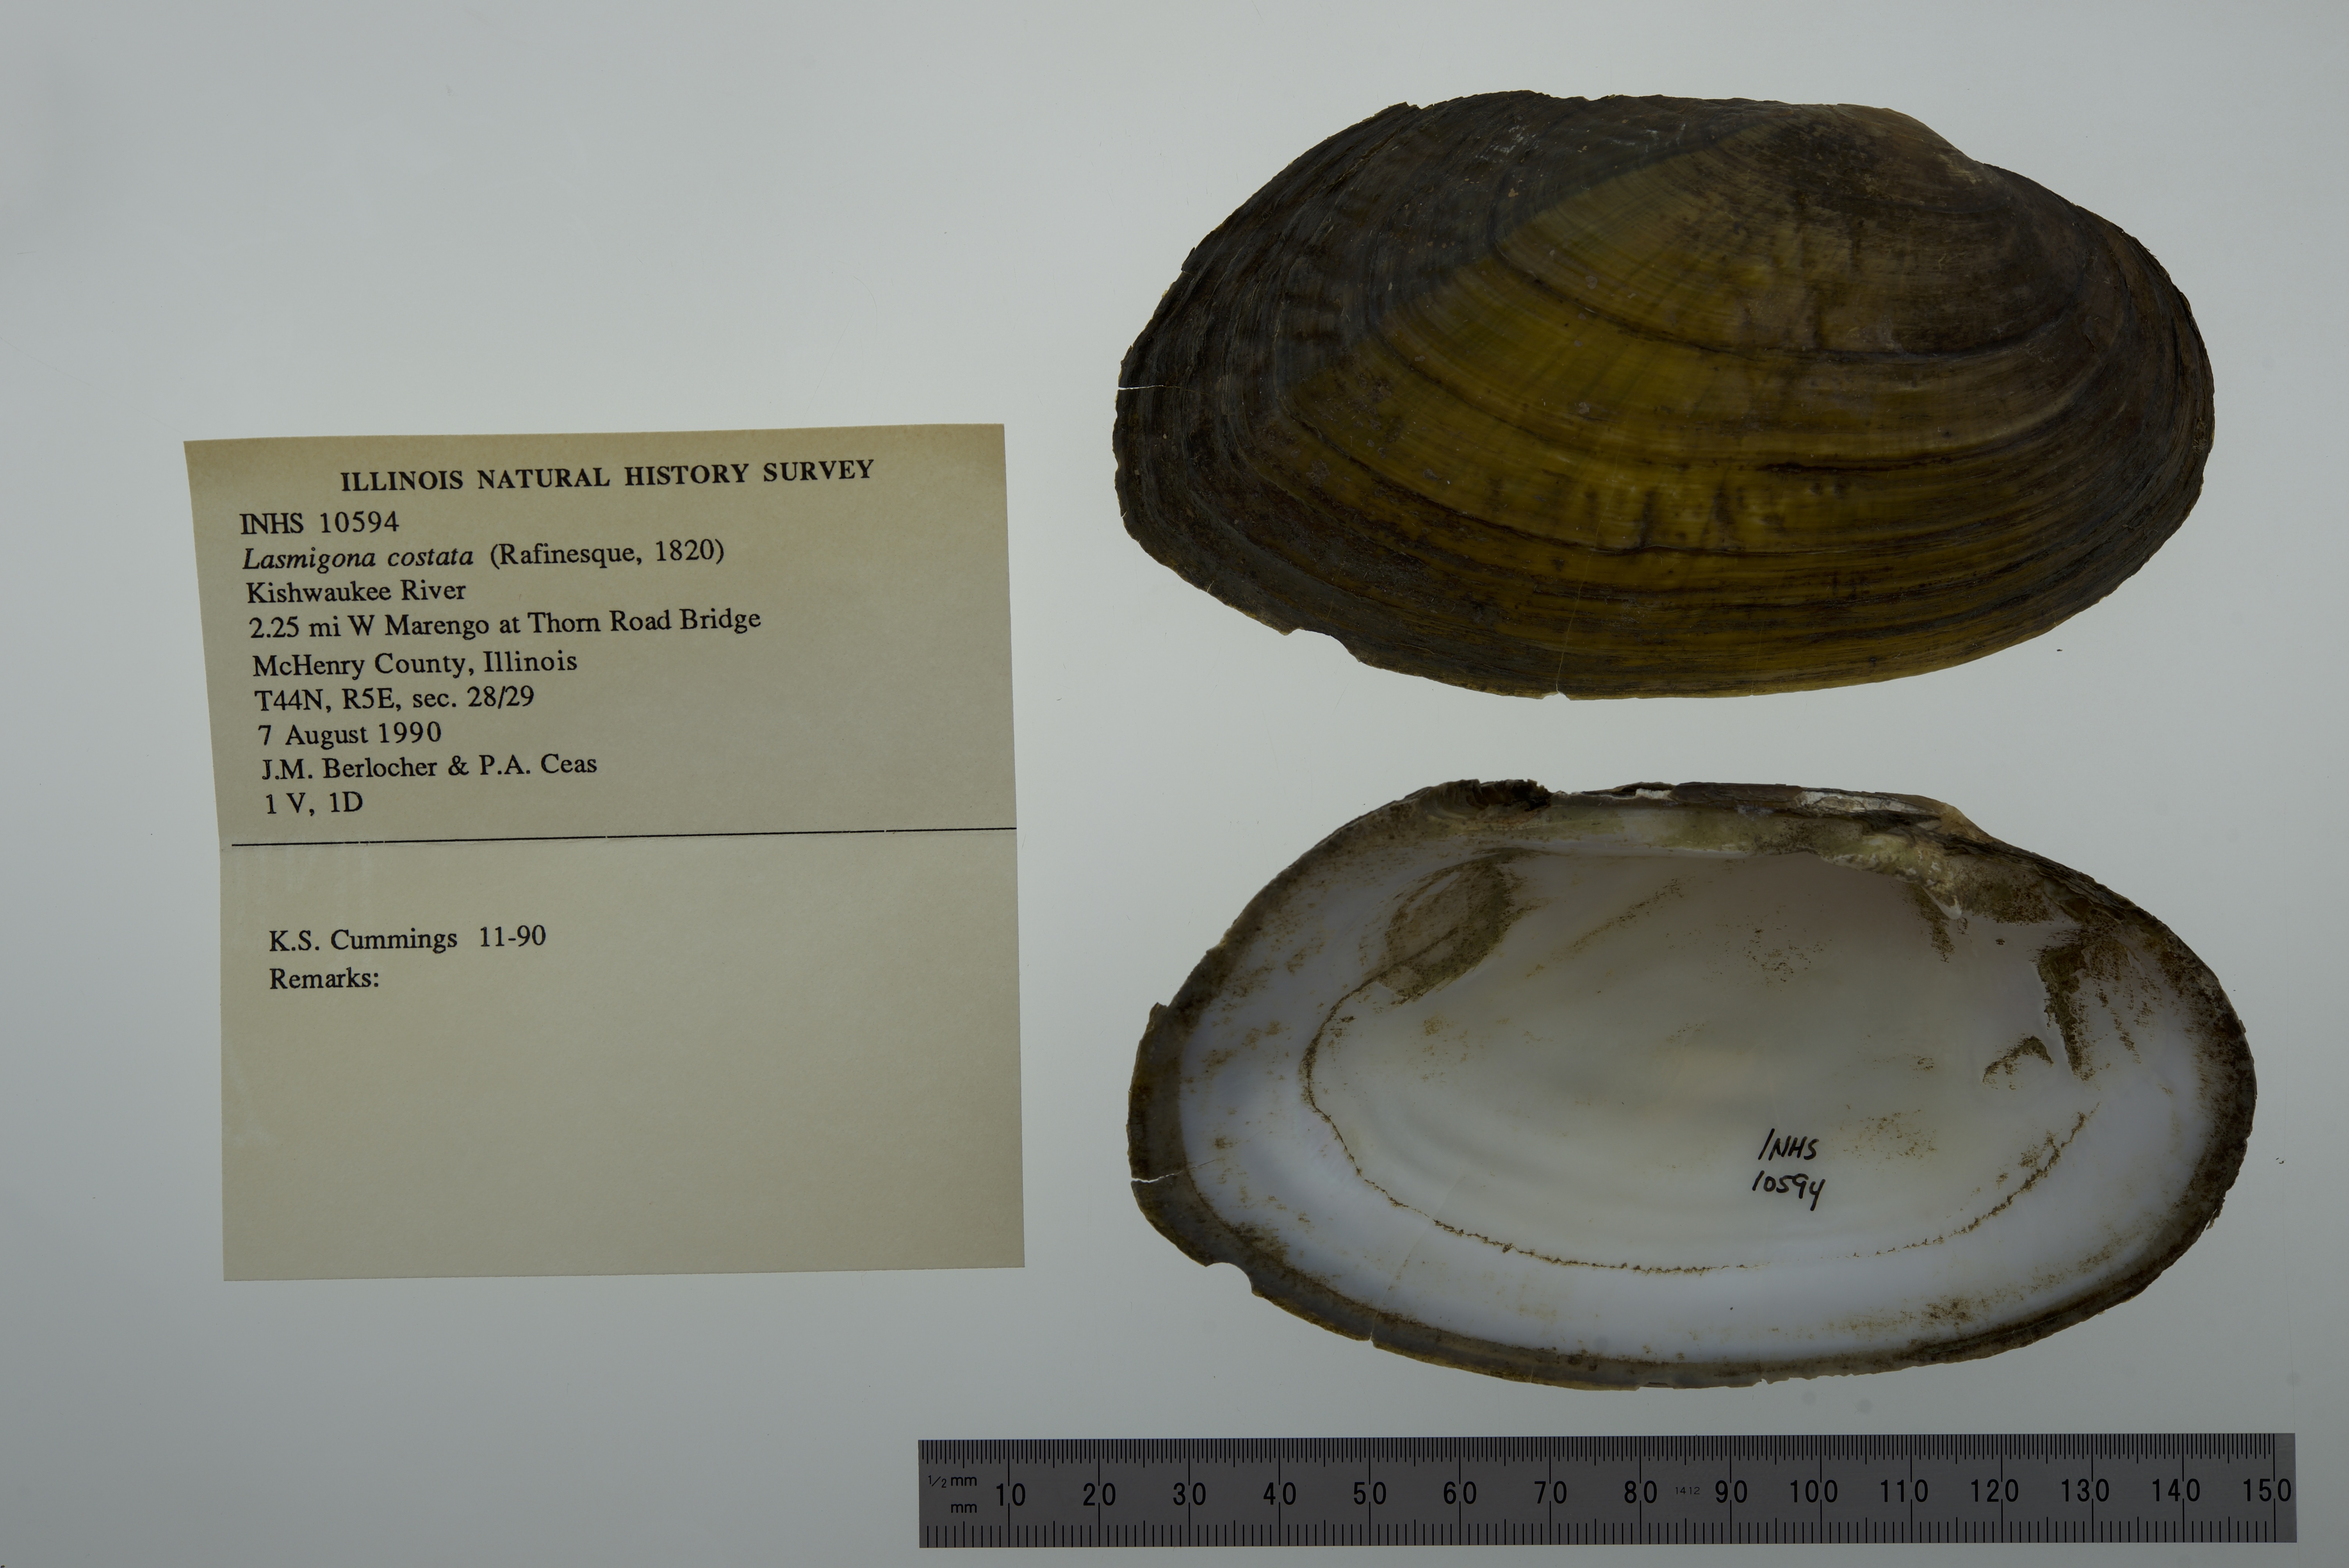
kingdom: Animalia
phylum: Mollusca
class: Bivalvia
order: Unionida
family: Unionidae
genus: Lasmigona
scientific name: Lasmigona costata
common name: Flutedshell
